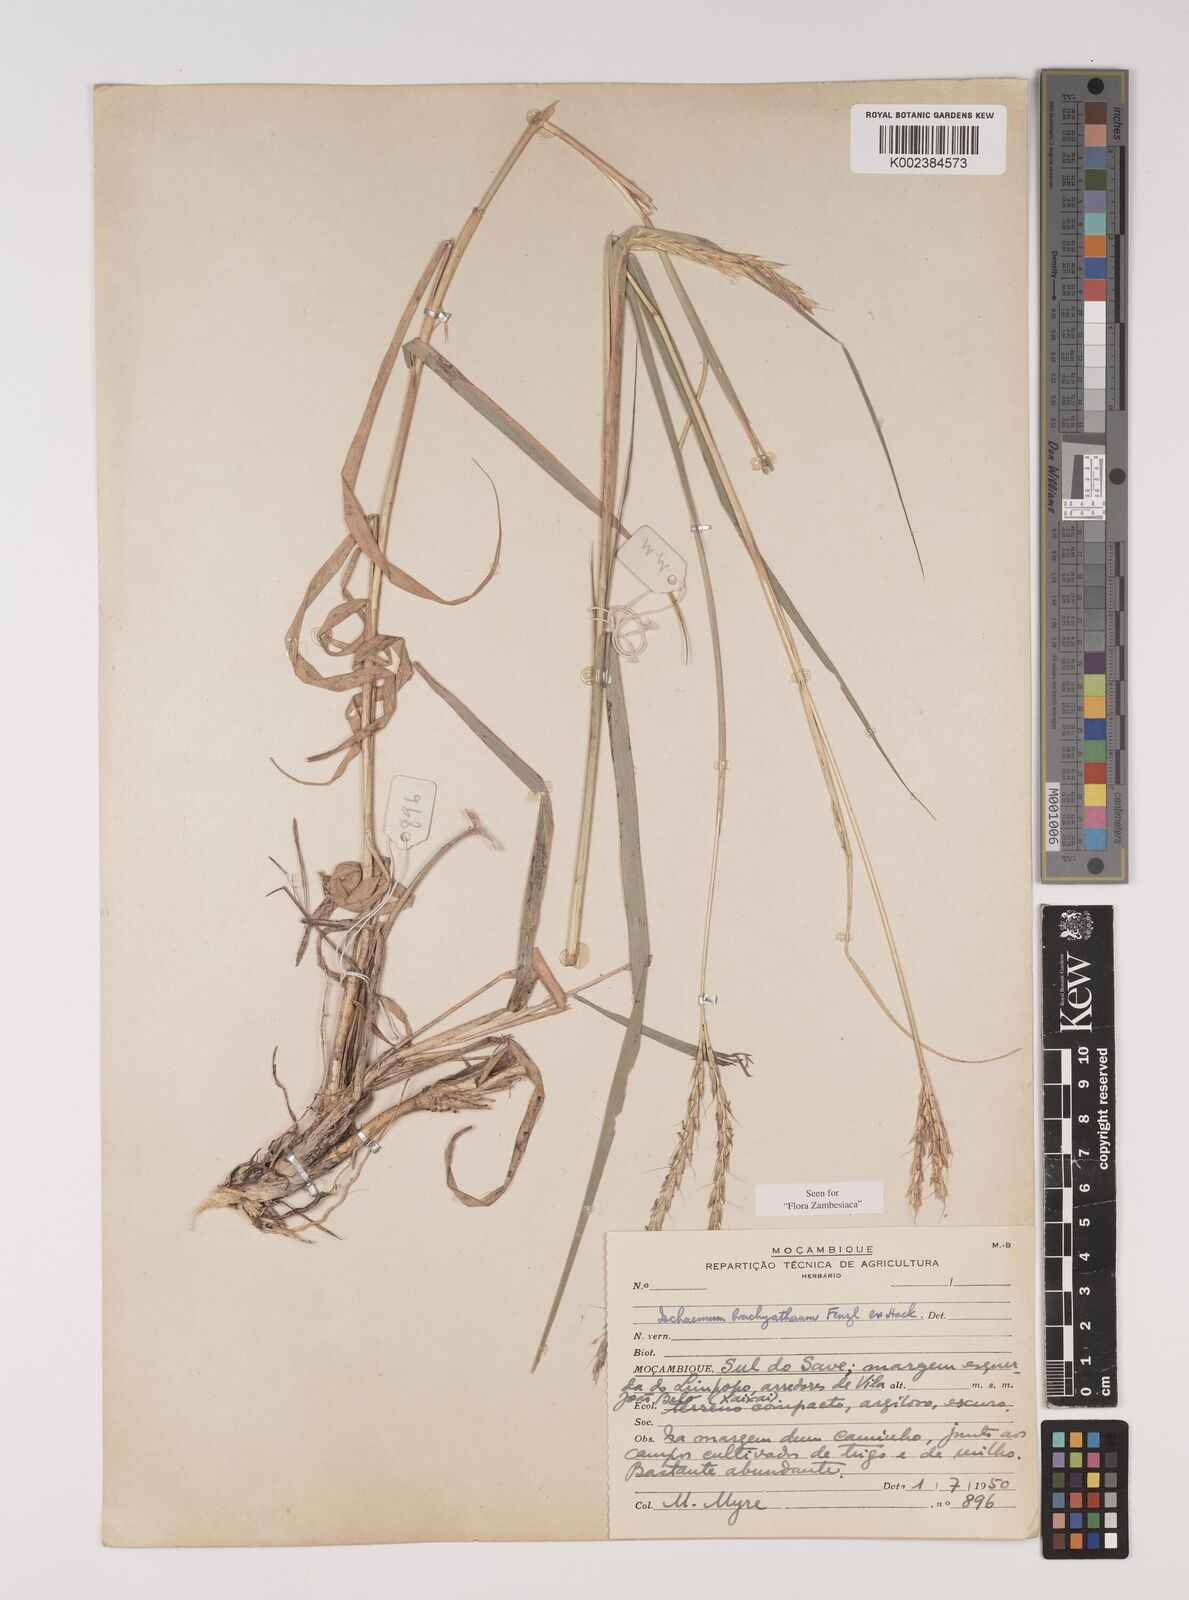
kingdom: Plantae
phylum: Tracheophyta
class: Liliopsida
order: Poales
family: Poaceae
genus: Ischaemum
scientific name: Ischaemum afrum
